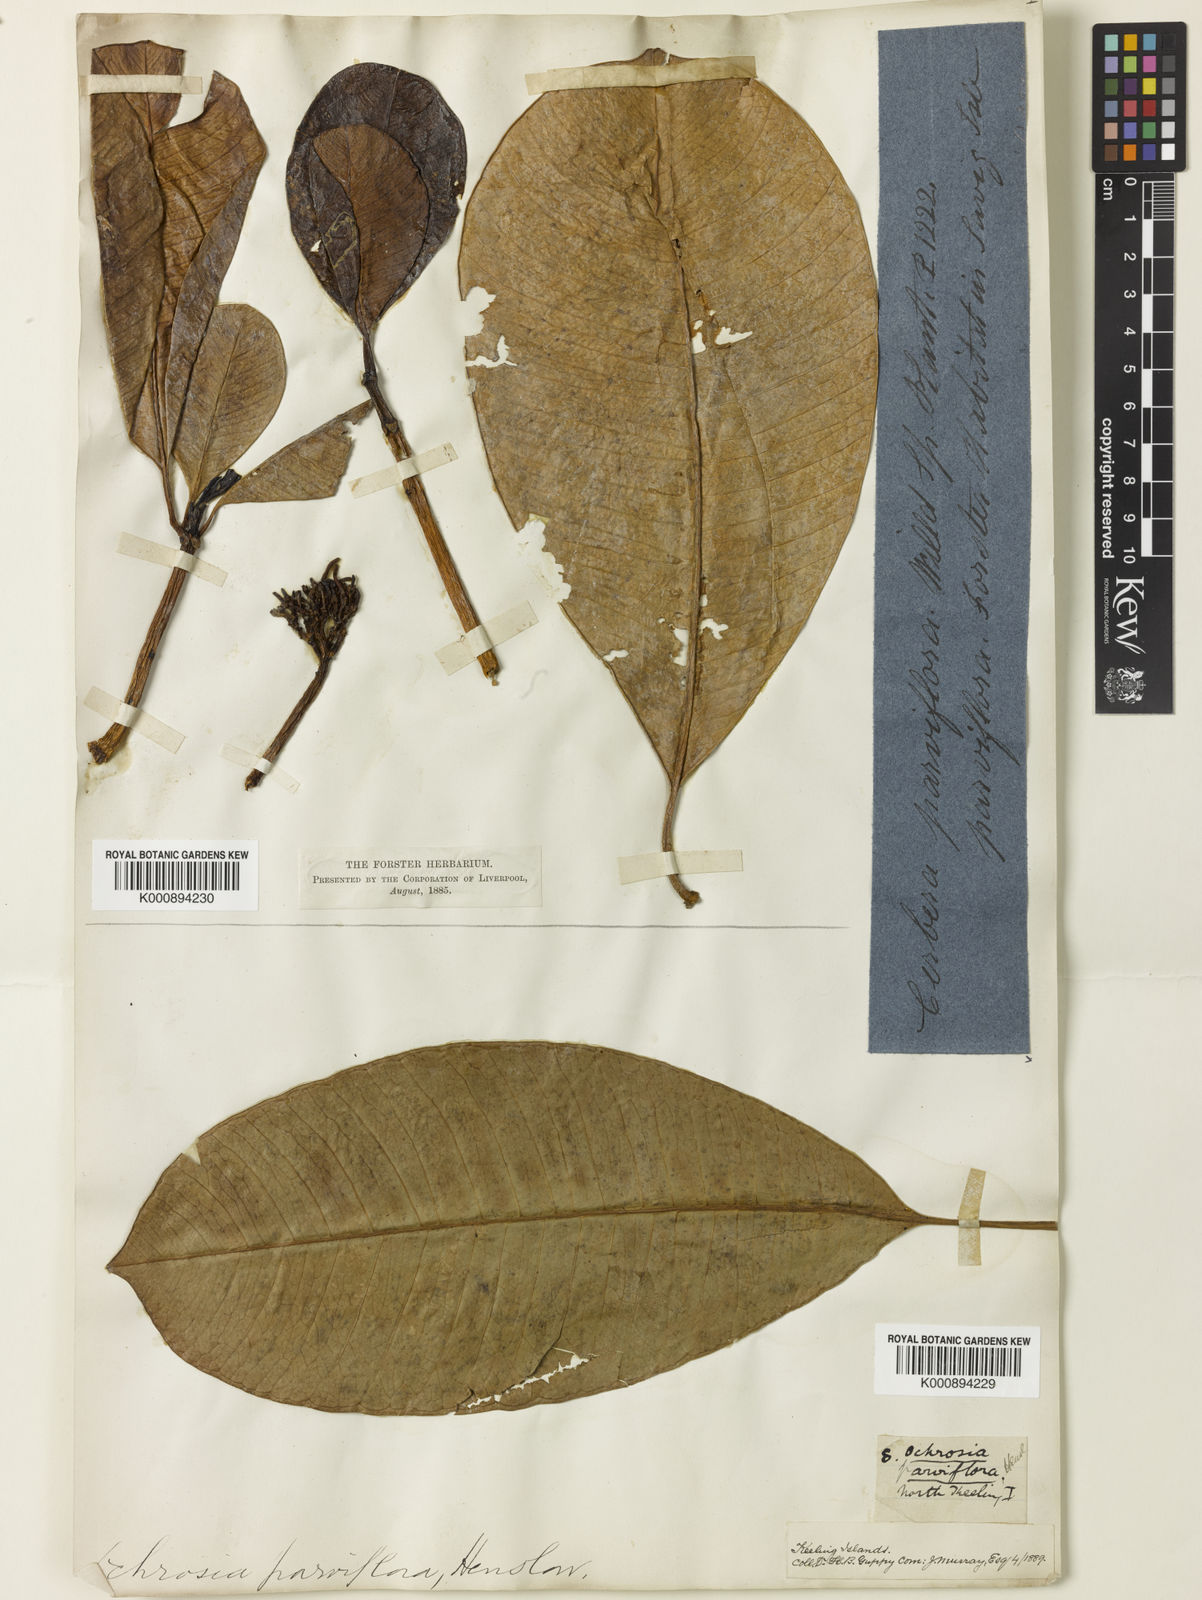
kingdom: Plantae
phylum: Tracheophyta
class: Magnoliopsida
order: Gentianales
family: Apocynaceae
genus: Ochrosia
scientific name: Ochrosia oppositifolia
